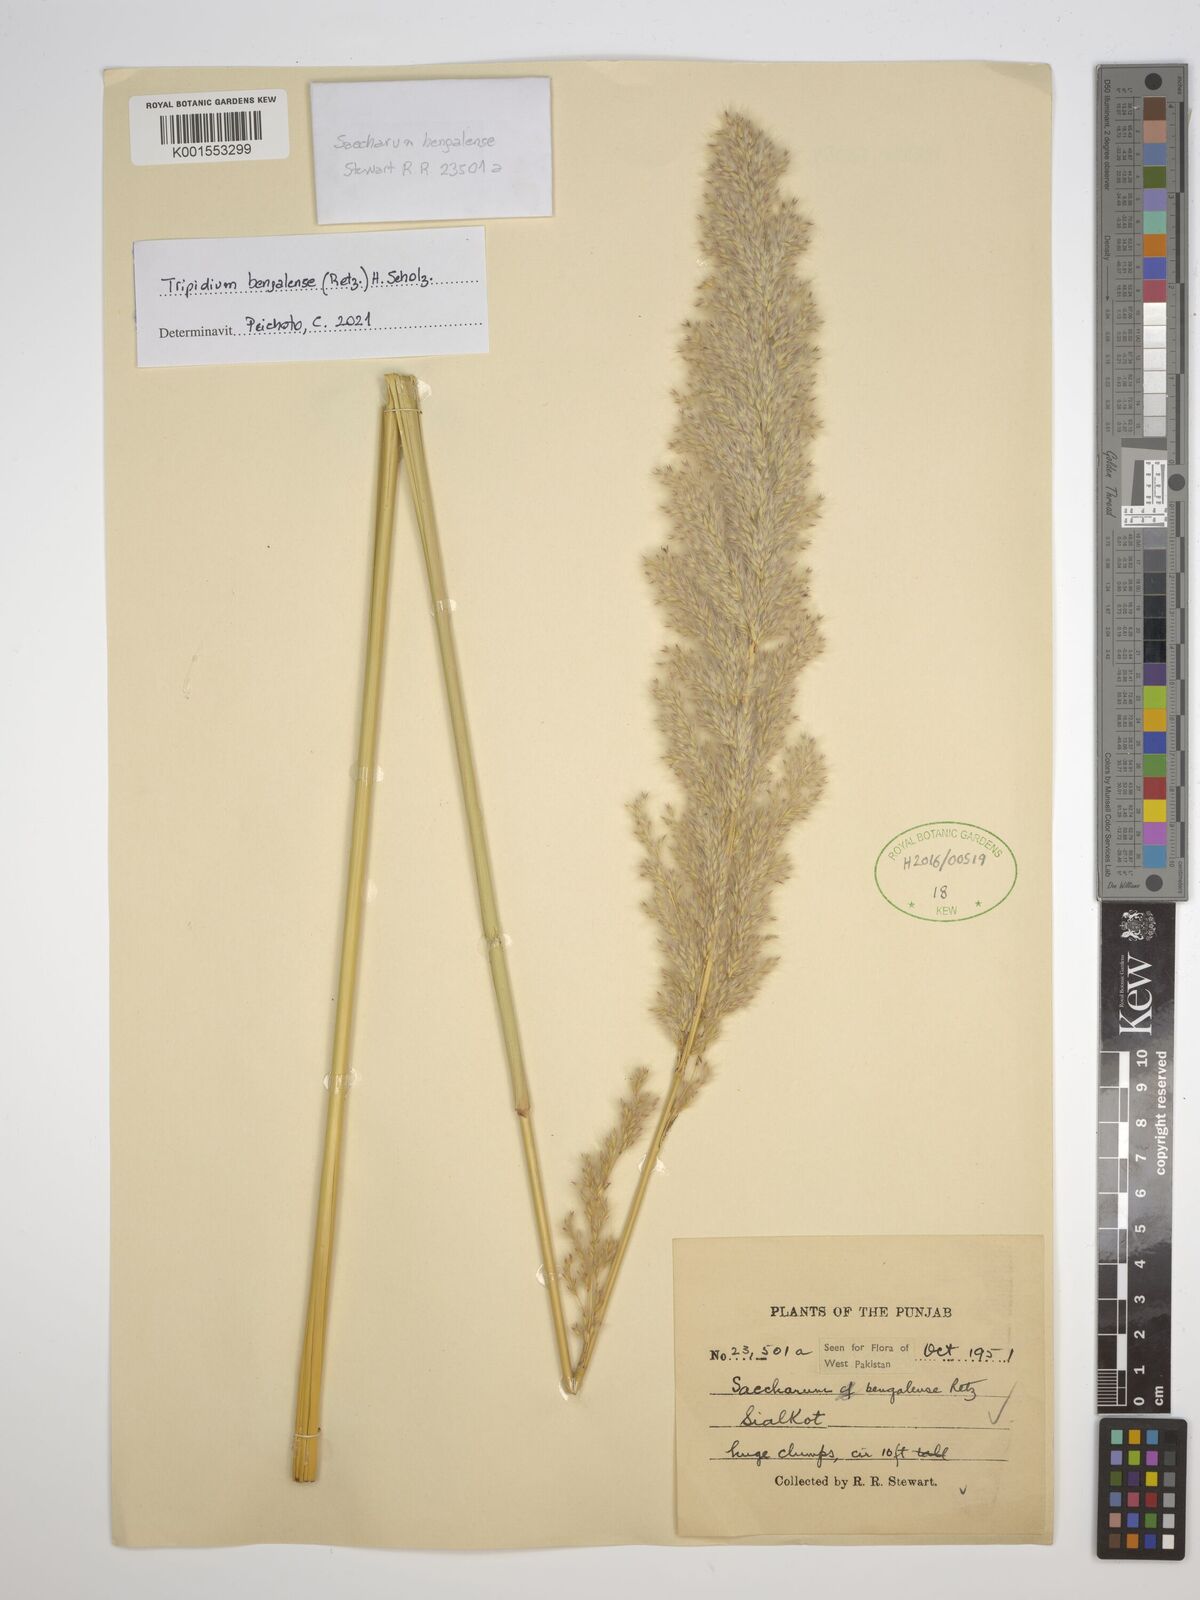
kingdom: Plantae
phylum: Tracheophyta
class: Liliopsida
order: Poales
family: Poaceae
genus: Tripidium
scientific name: Tripidium bengalense
